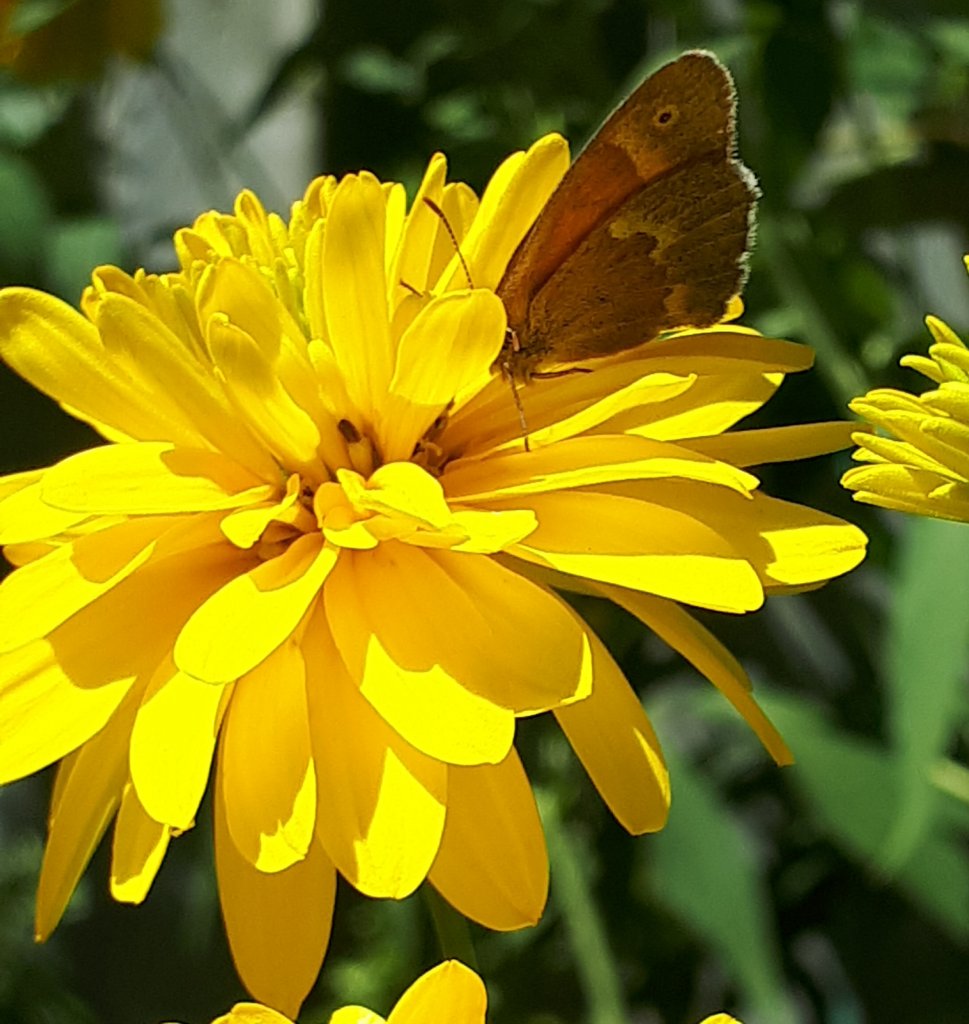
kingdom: Animalia
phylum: Arthropoda
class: Insecta
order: Lepidoptera
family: Nymphalidae
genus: Coenonympha
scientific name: Coenonympha tullia
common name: Large Heath
